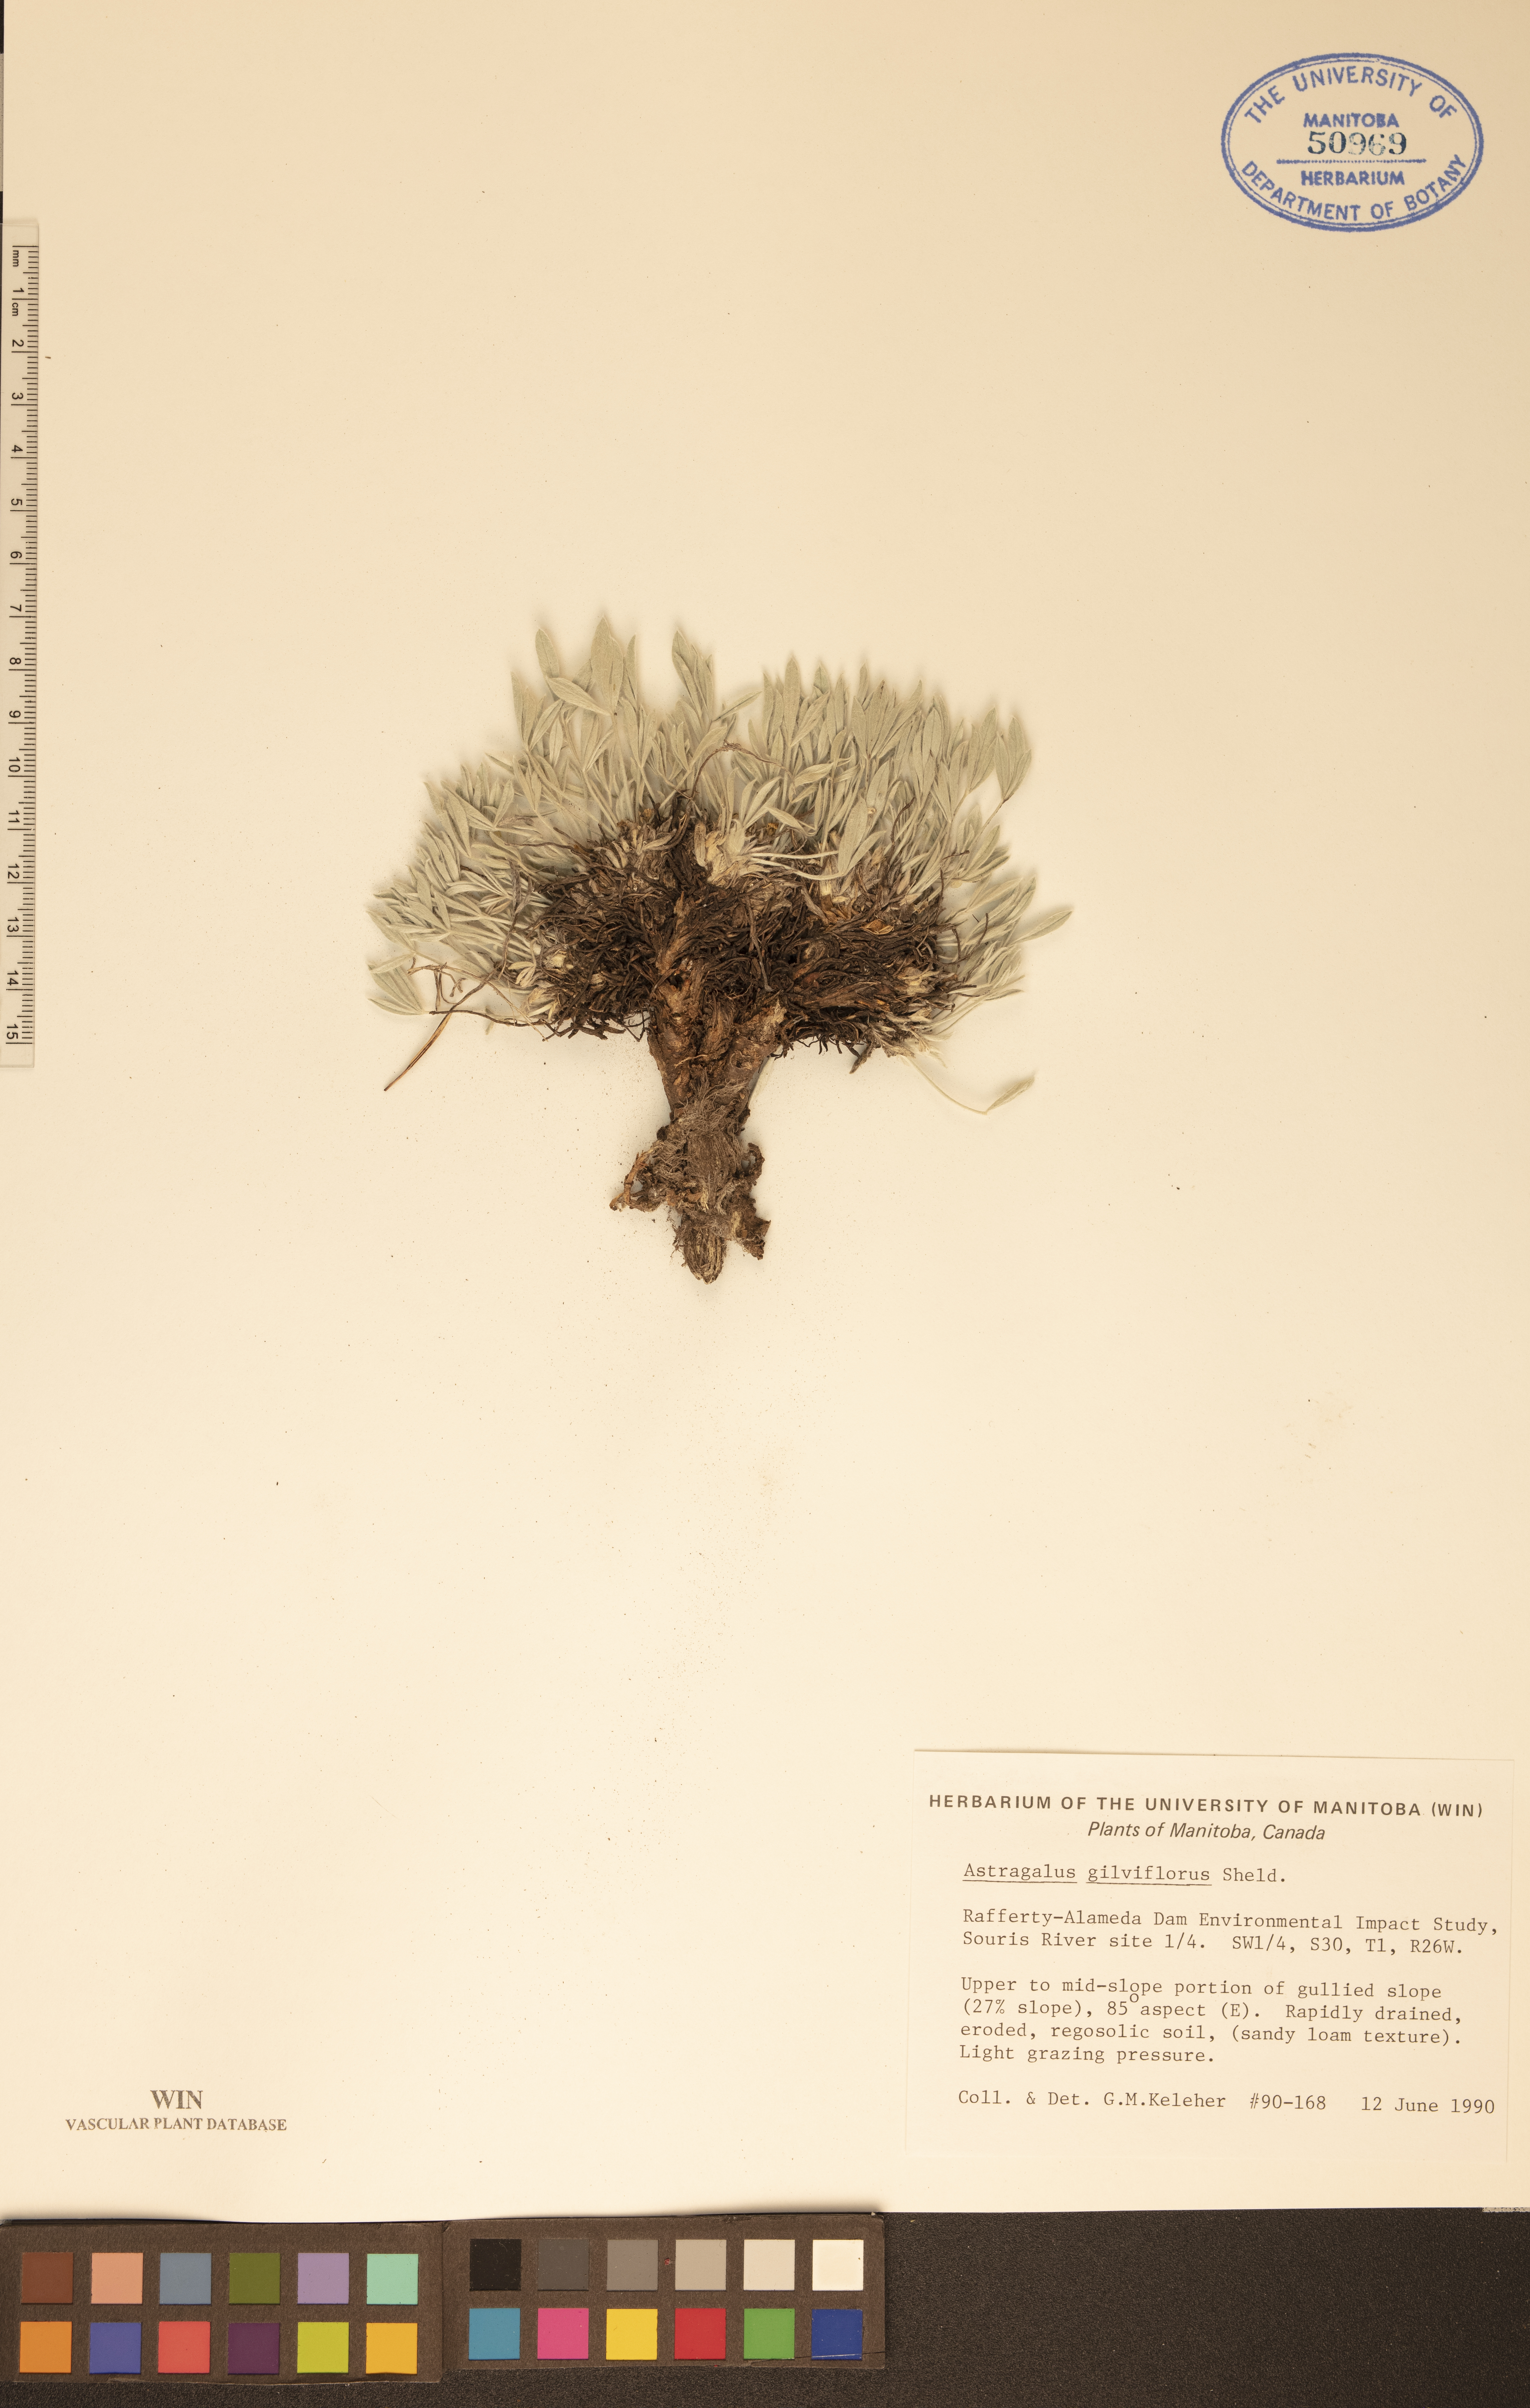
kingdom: Plantae
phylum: Tracheophyta
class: Magnoliopsida
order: Fabales
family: Fabaceae
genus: Astragalus
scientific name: Astragalus gilviflorus
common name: Cushion milk-vetch
